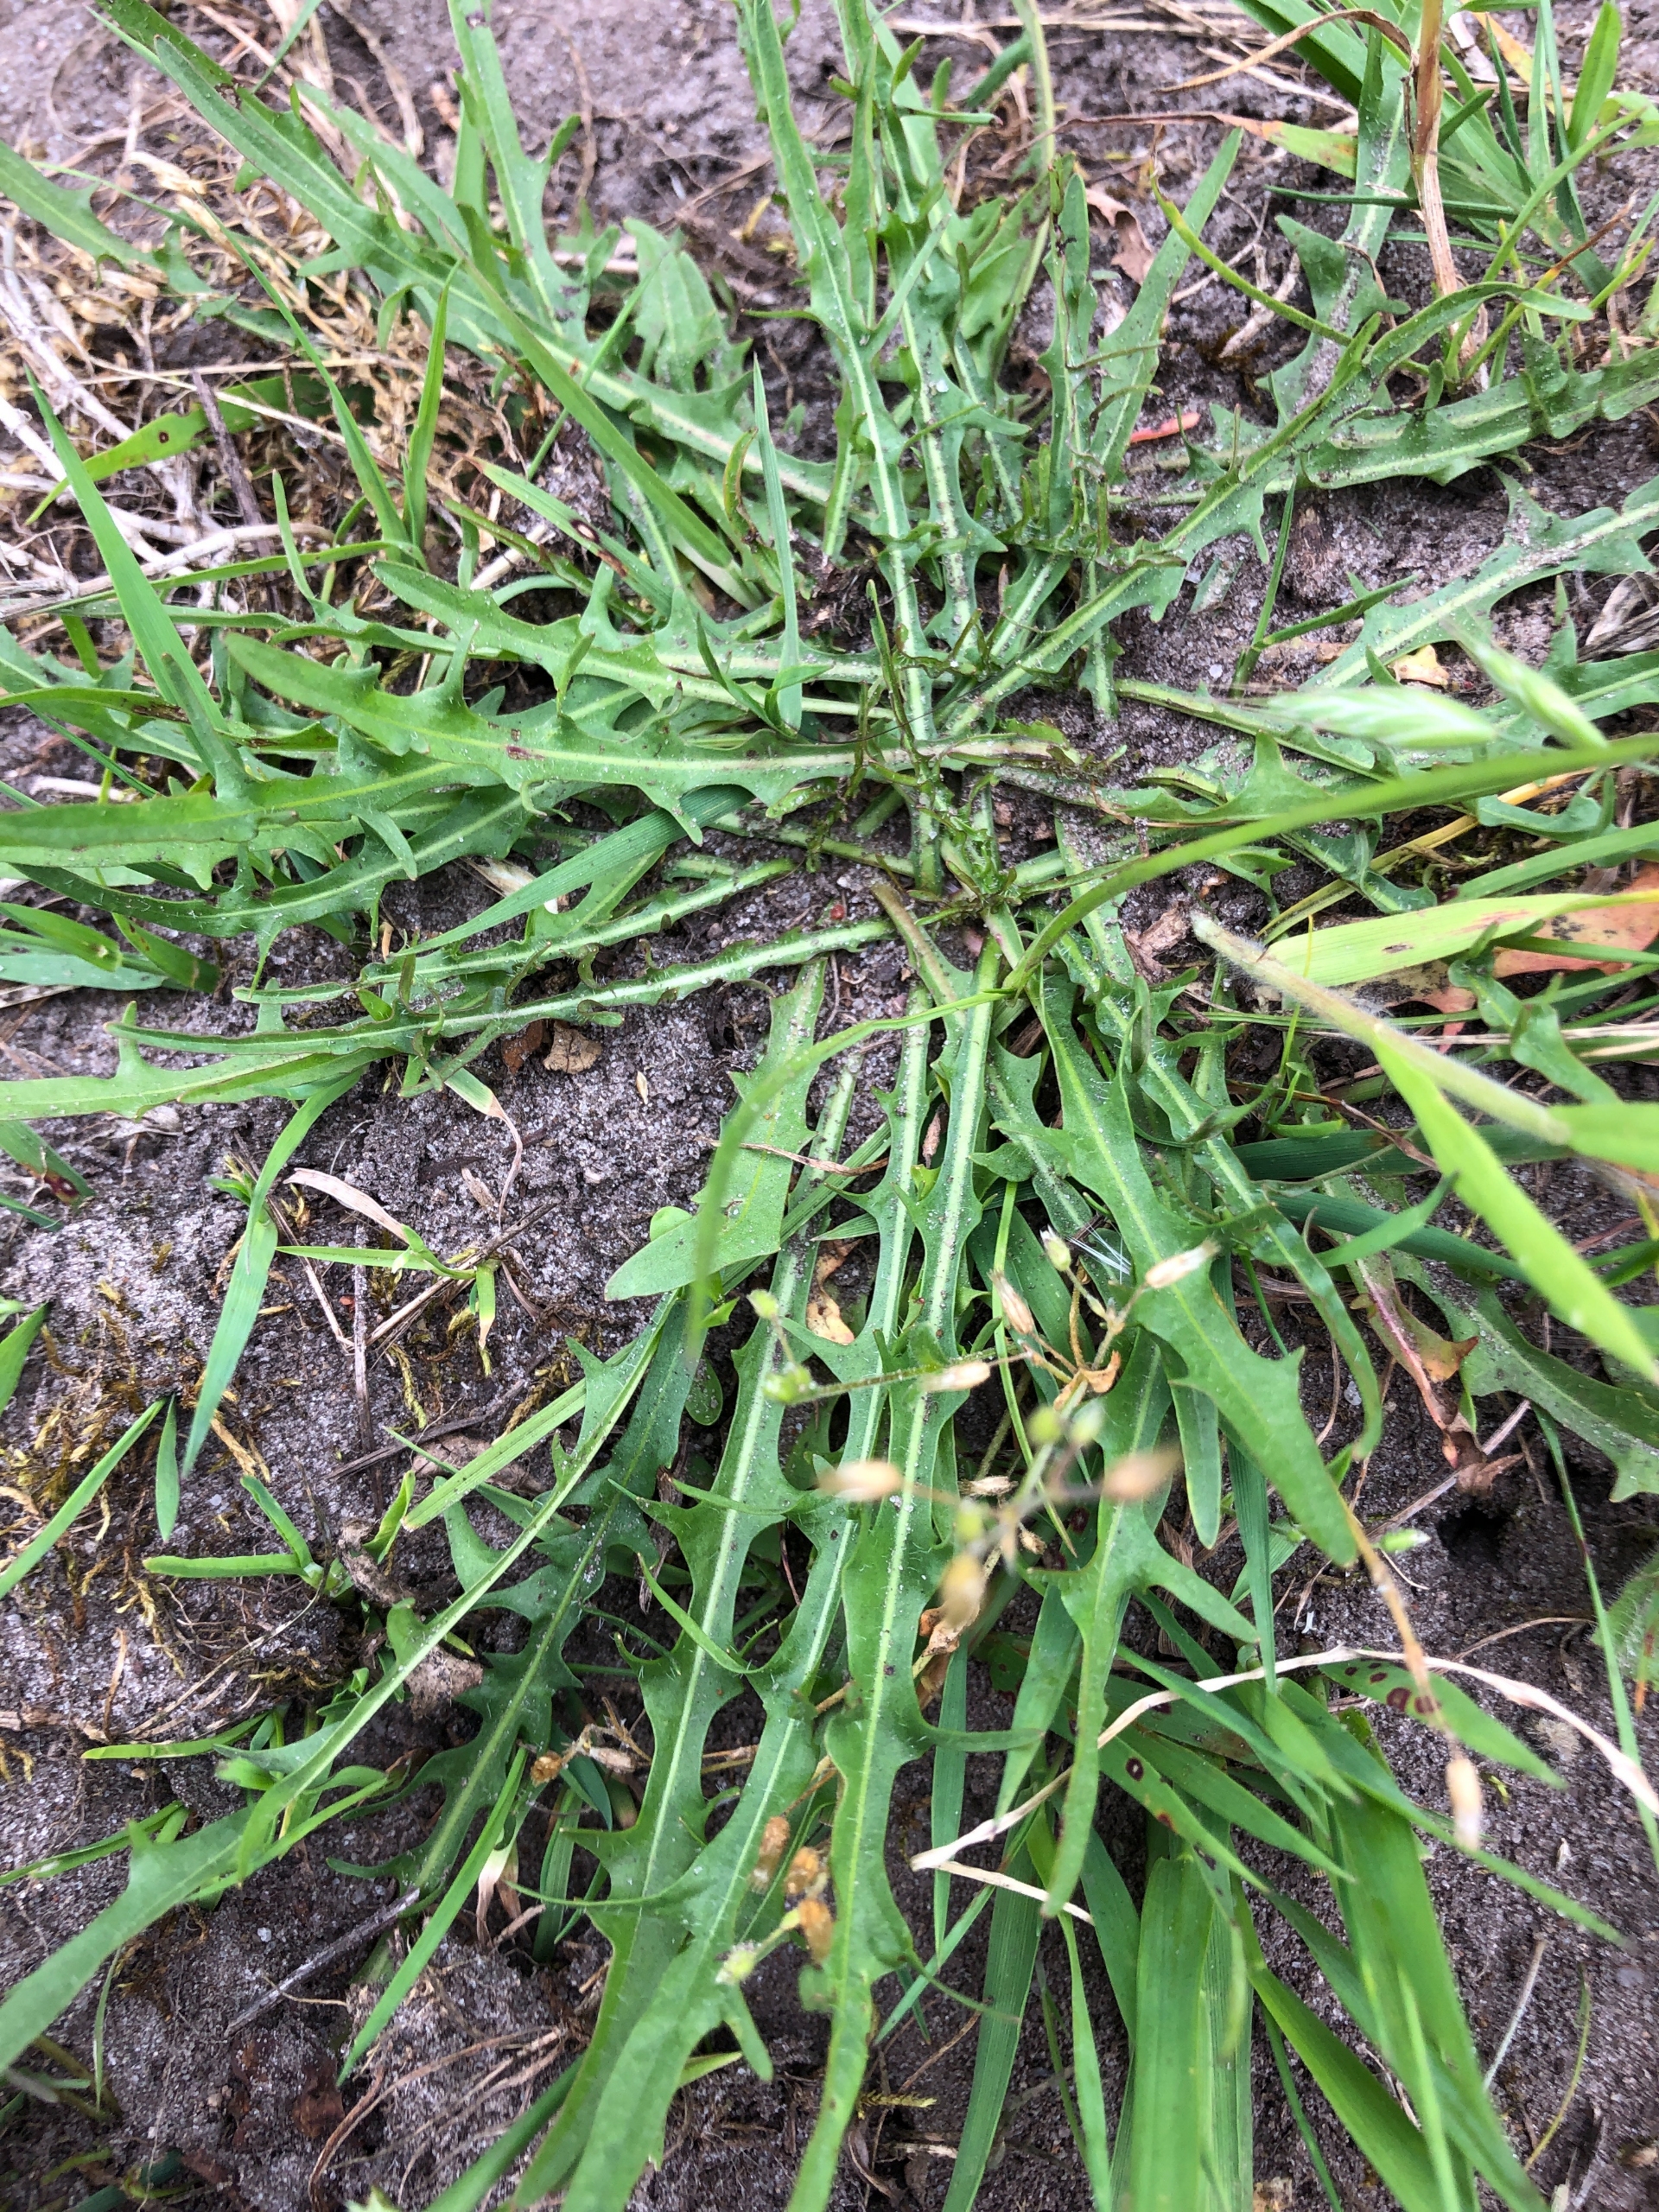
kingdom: Plantae
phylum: Tracheophyta
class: Magnoliopsida
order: Asterales
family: Asteraceae
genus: Scorzoneroides
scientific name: Scorzoneroides autumnalis
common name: Høst-borst
